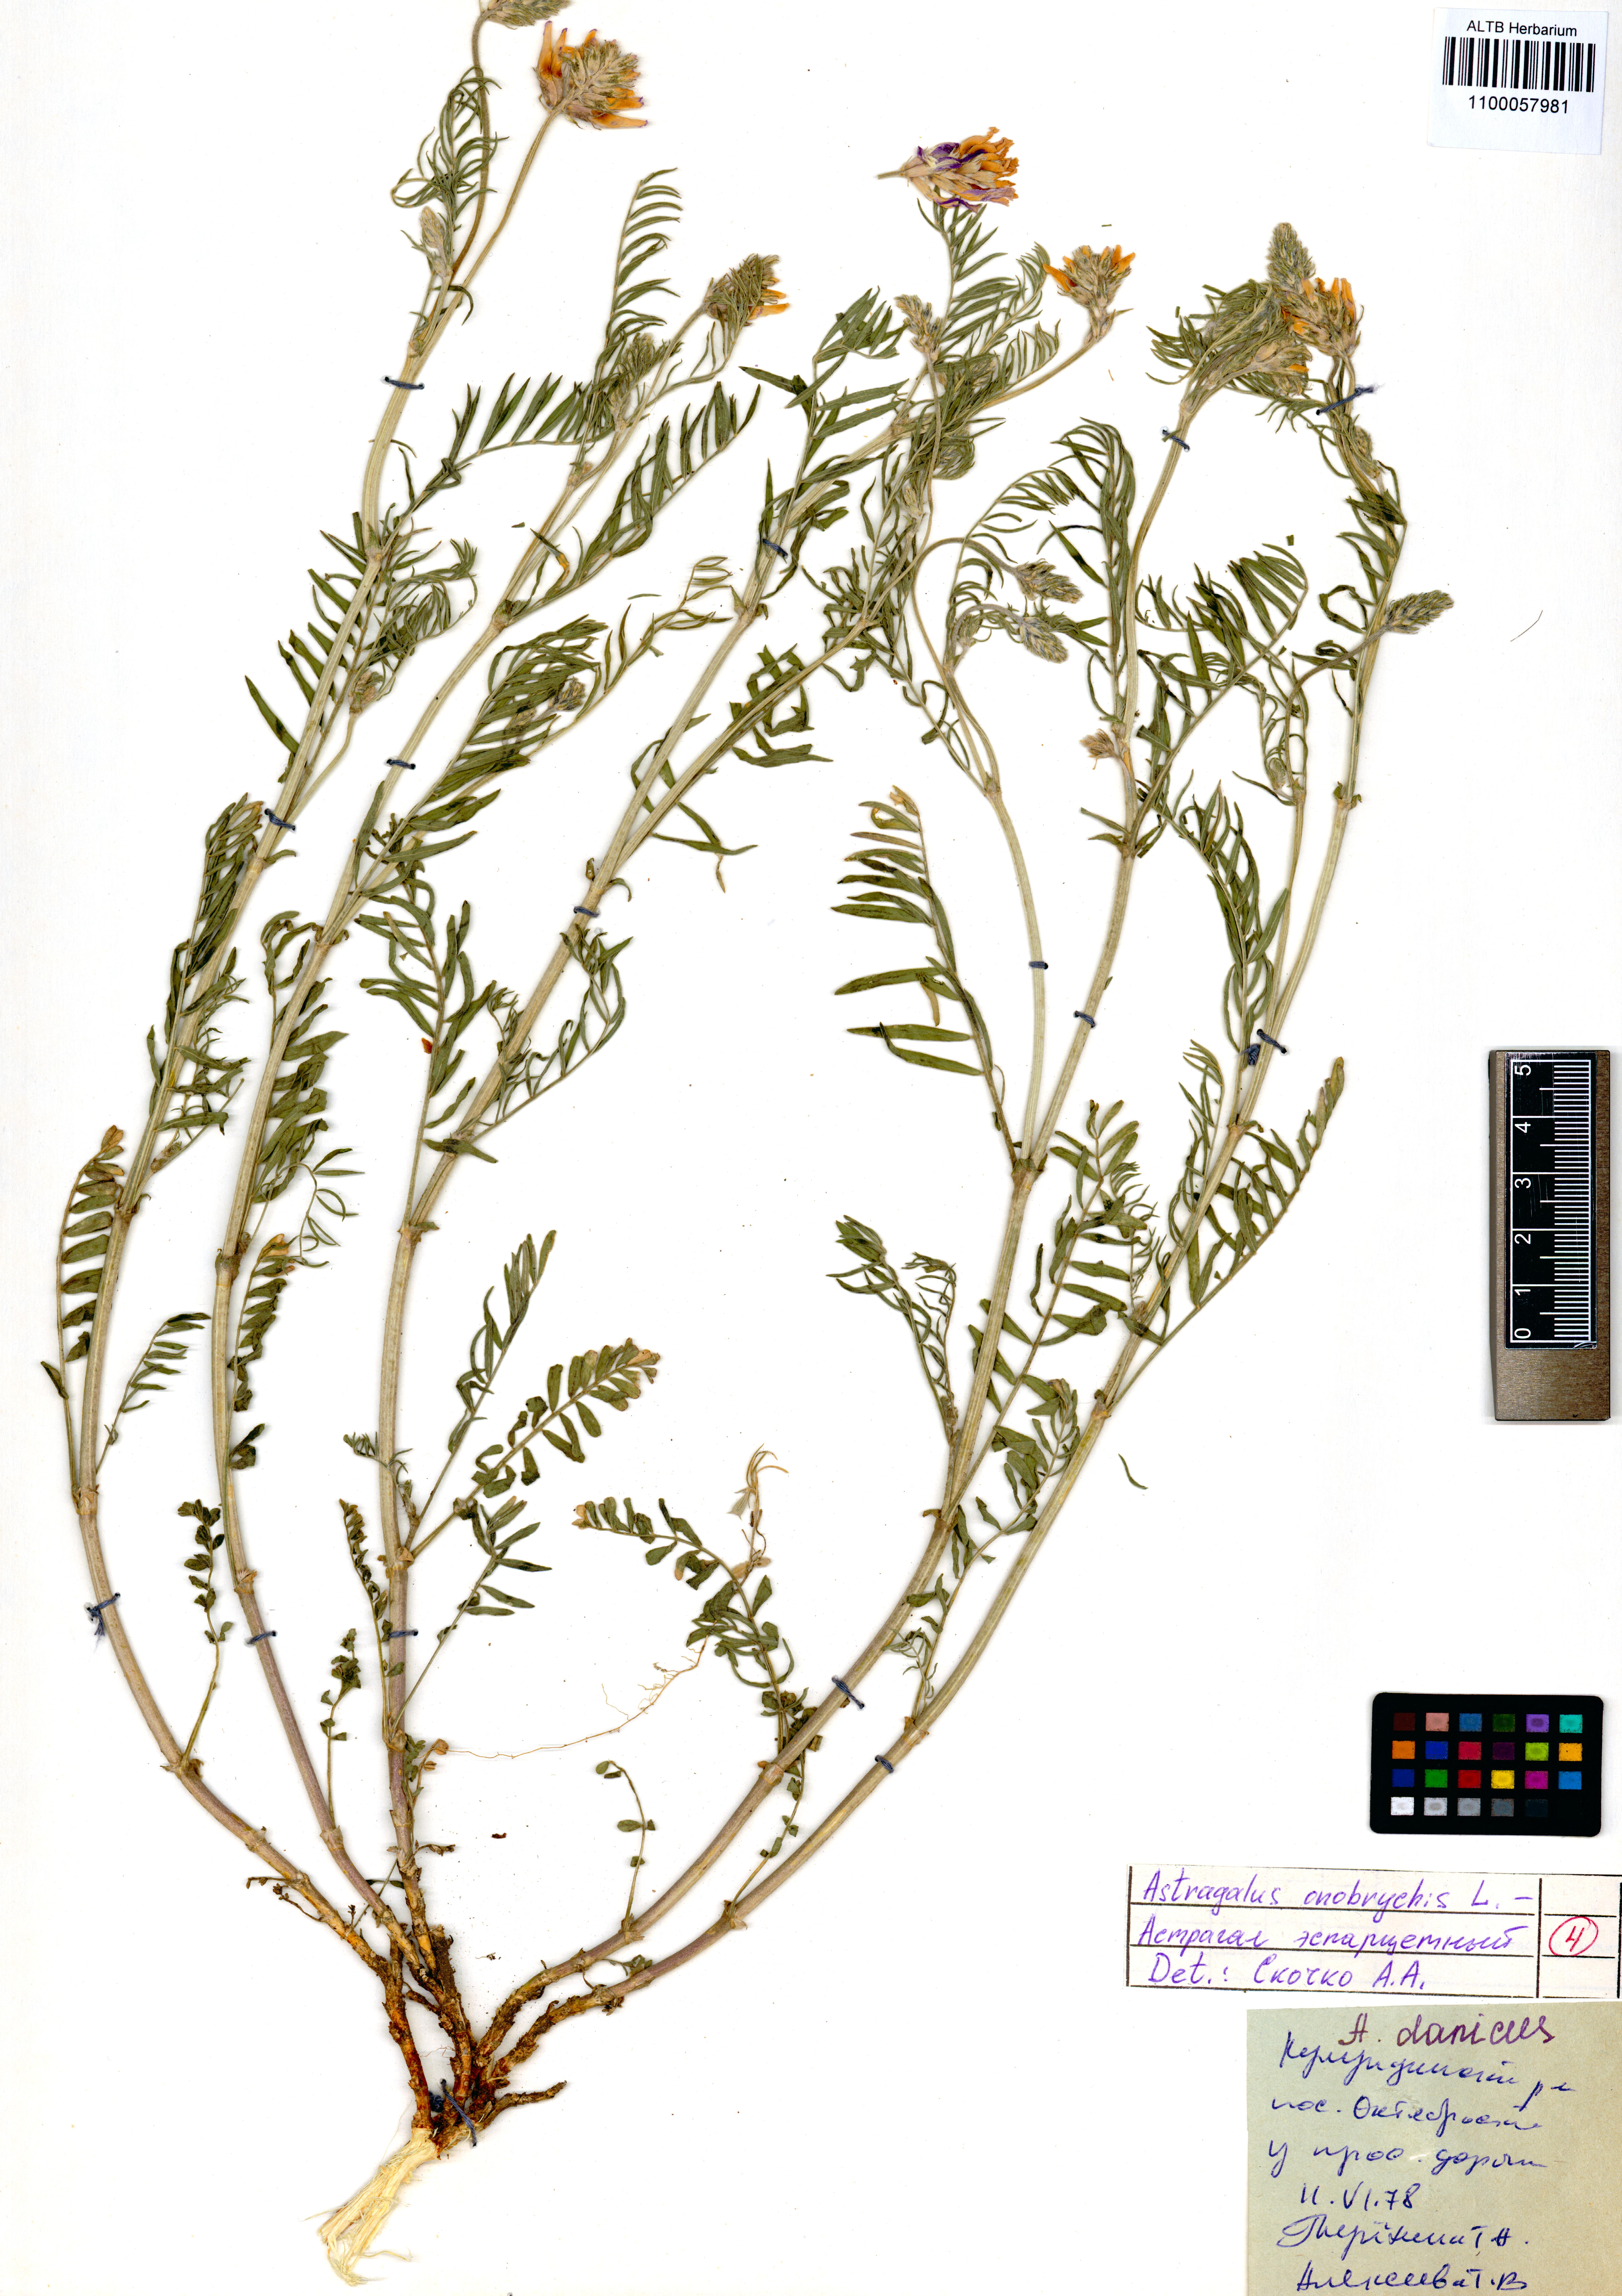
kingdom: Plantae
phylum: Tracheophyta
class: Magnoliopsida
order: Fabales
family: Fabaceae
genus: Astragalus
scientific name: Astragalus onobrychis
